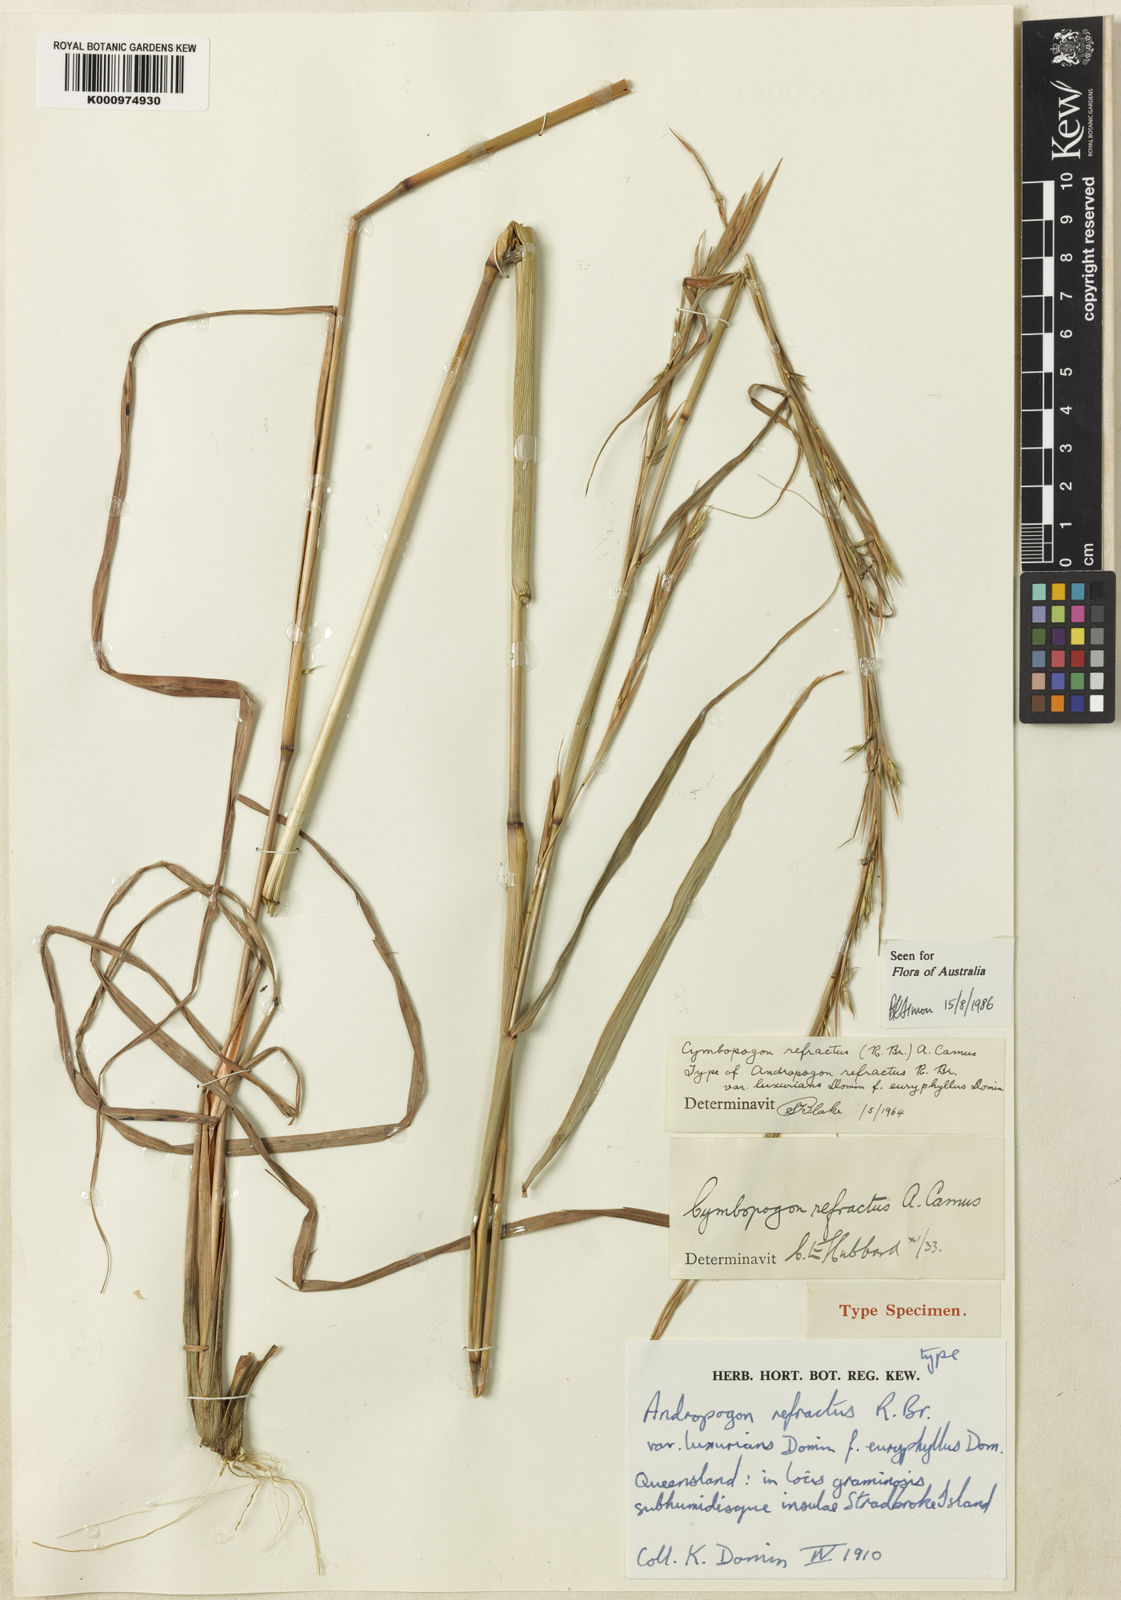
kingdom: Plantae
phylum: Tracheophyta
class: Liliopsida
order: Poales
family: Poaceae
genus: Cymbopogon
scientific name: Cymbopogon refractus
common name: Barbwire grass
